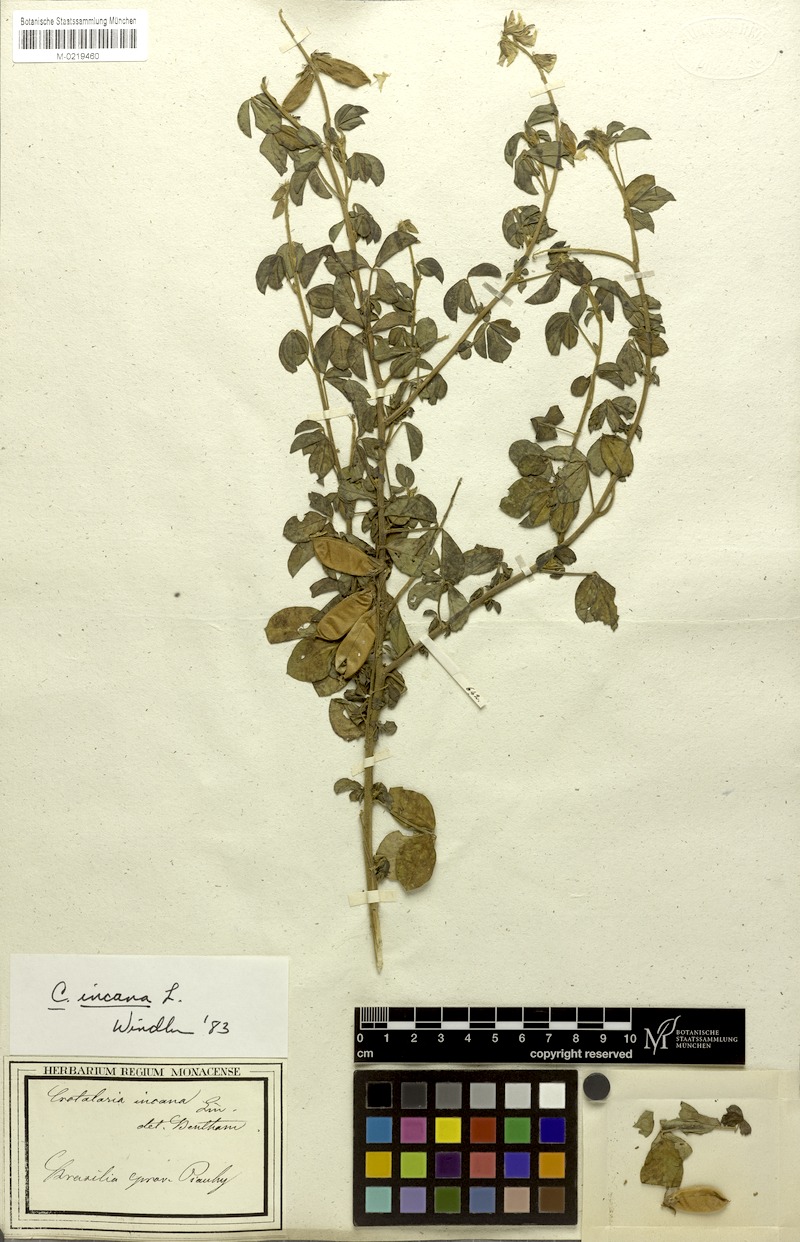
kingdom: Plantae
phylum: Tracheophyta
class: Magnoliopsida
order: Fabales
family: Fabaceae
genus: Crotalaria
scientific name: Crotalaria incana
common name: Shakeshake
